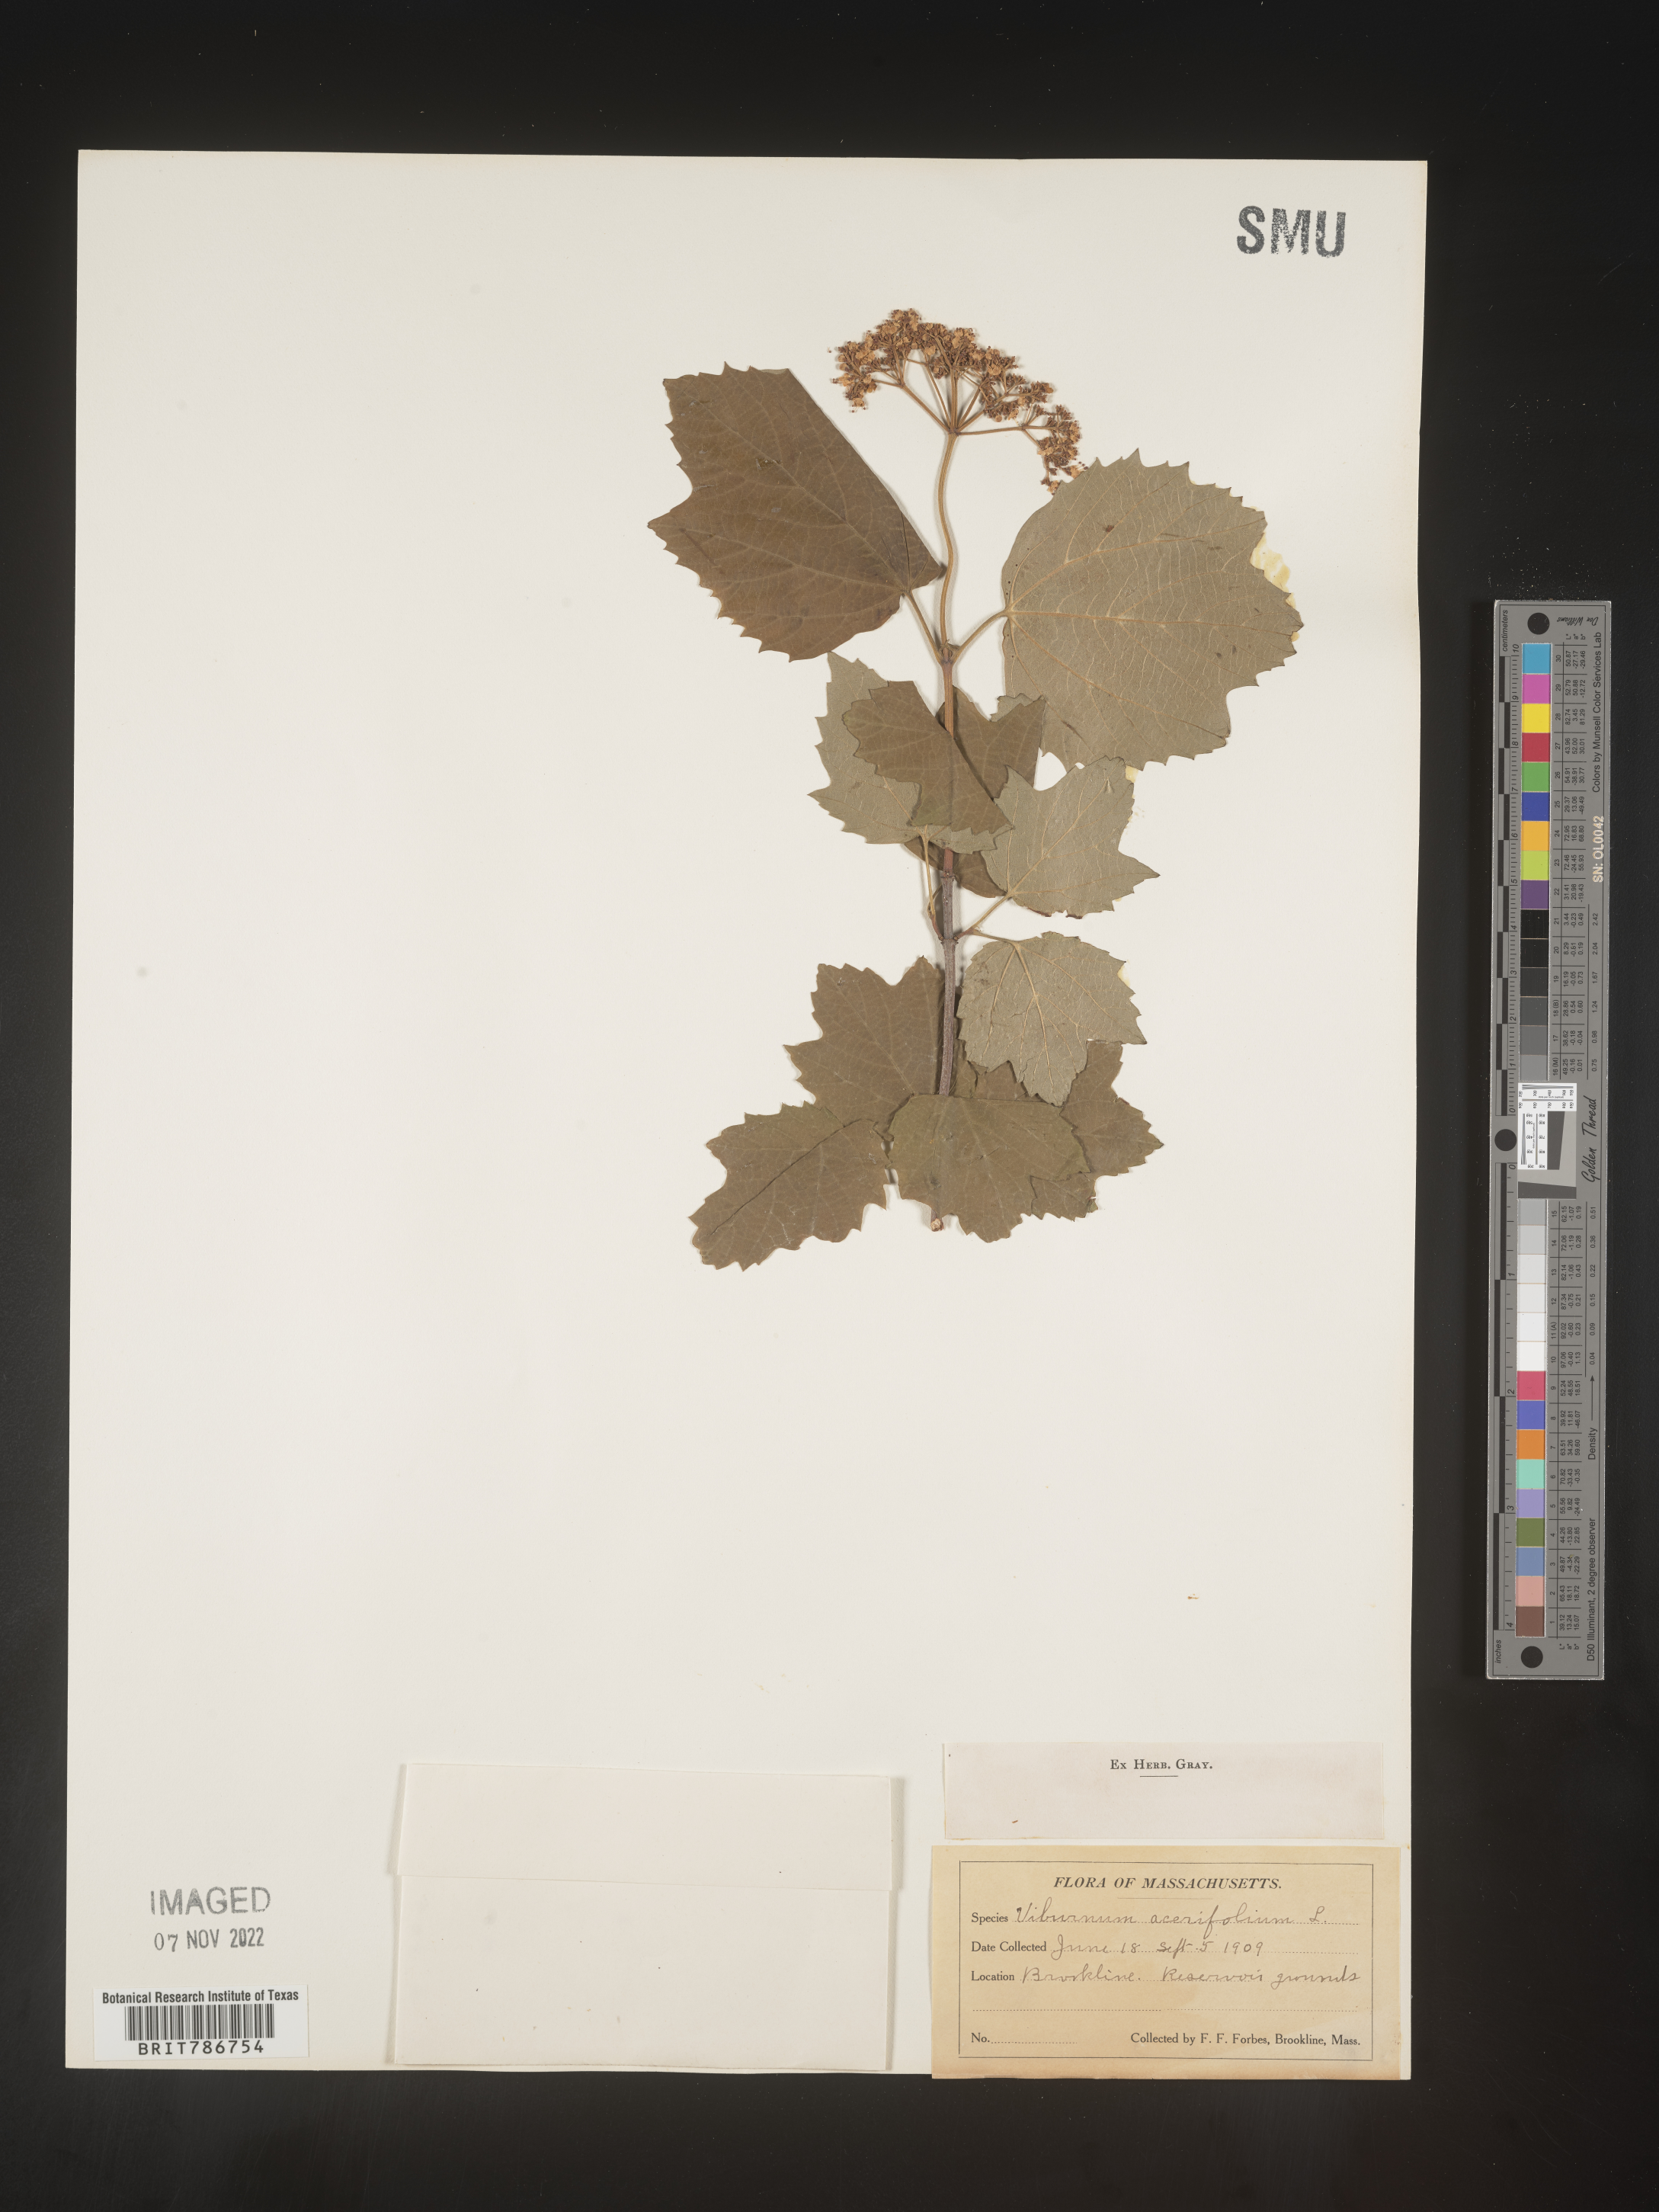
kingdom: Plantae
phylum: Tracheophyta
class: Magnoliopsida
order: Dipsacales
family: Viburnaceae
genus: Viburnum
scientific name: Viburnum acerifolium
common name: Dockmackie
